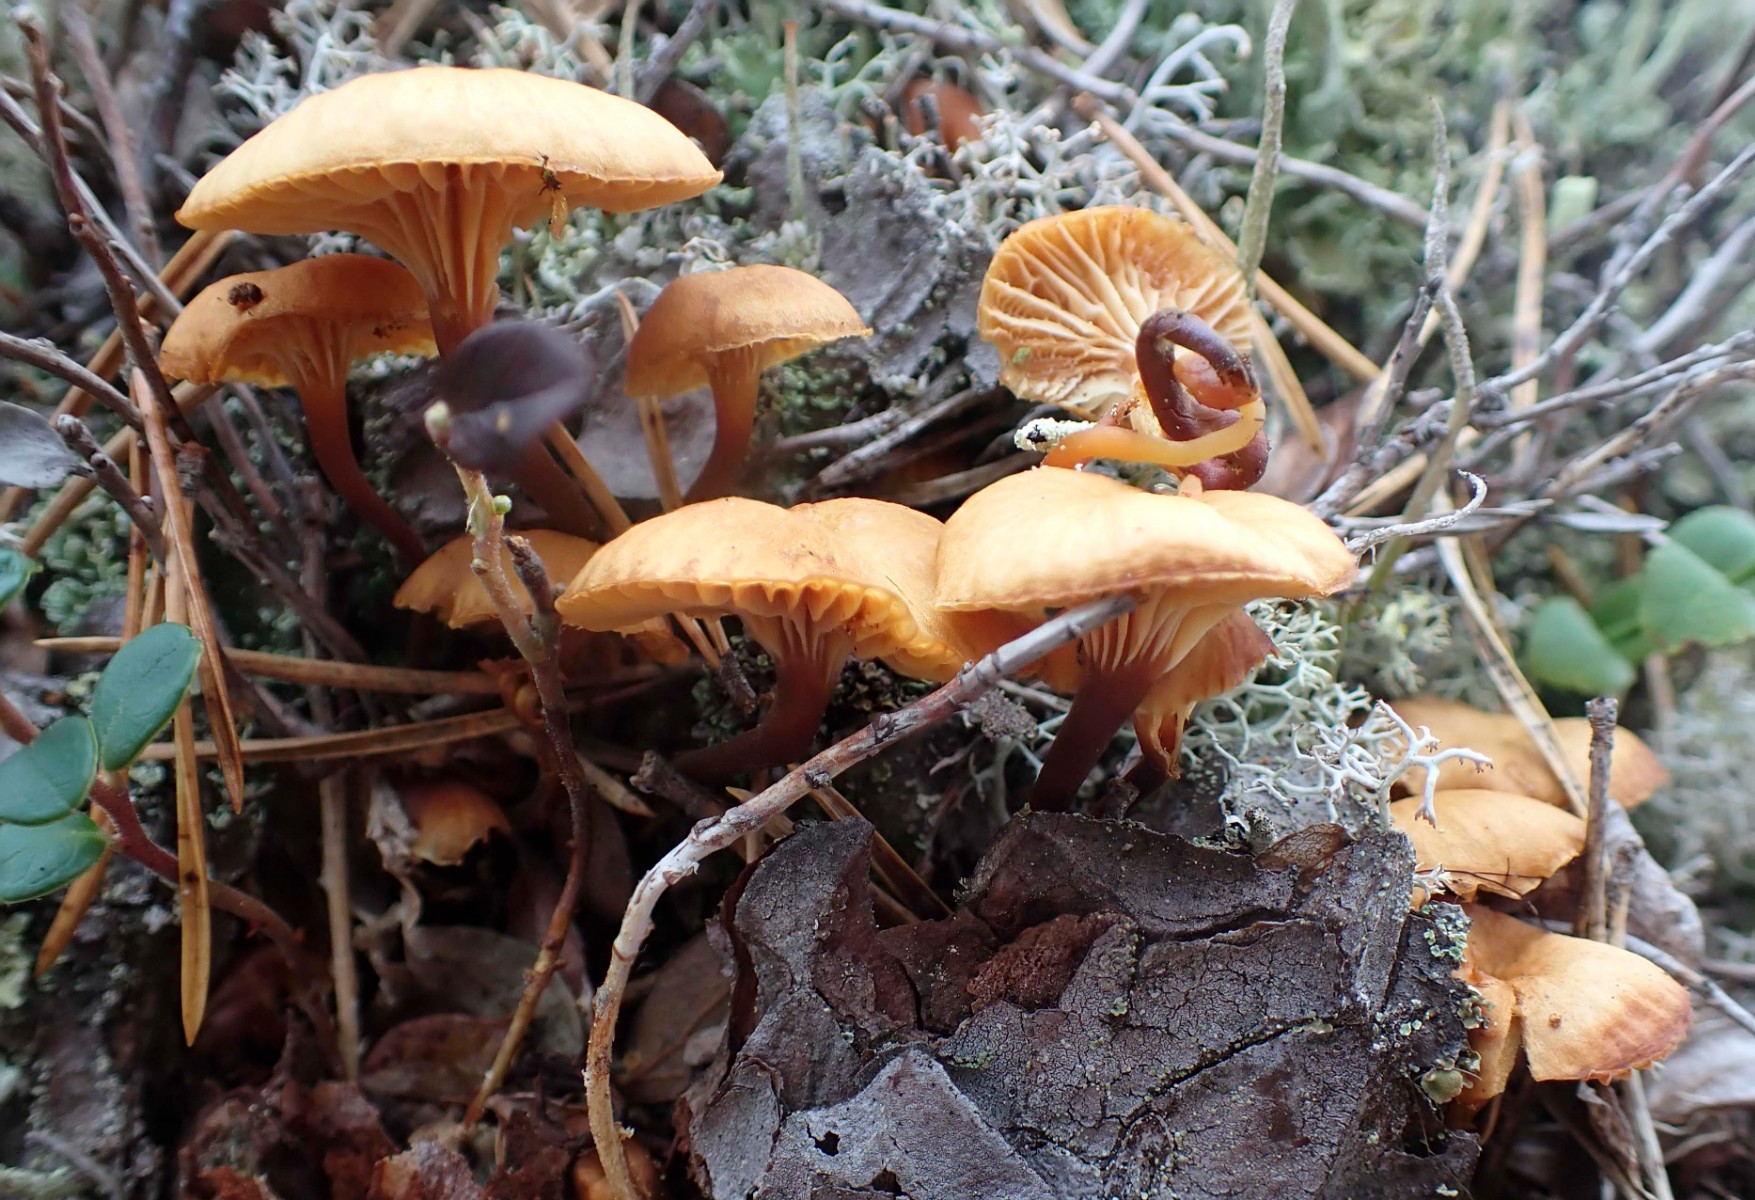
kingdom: Fungi
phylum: Basidiomycota
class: Agaricomycetes
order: Agaricales
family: Mycenaceae
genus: Xeromphalina
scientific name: Xeromphalina
